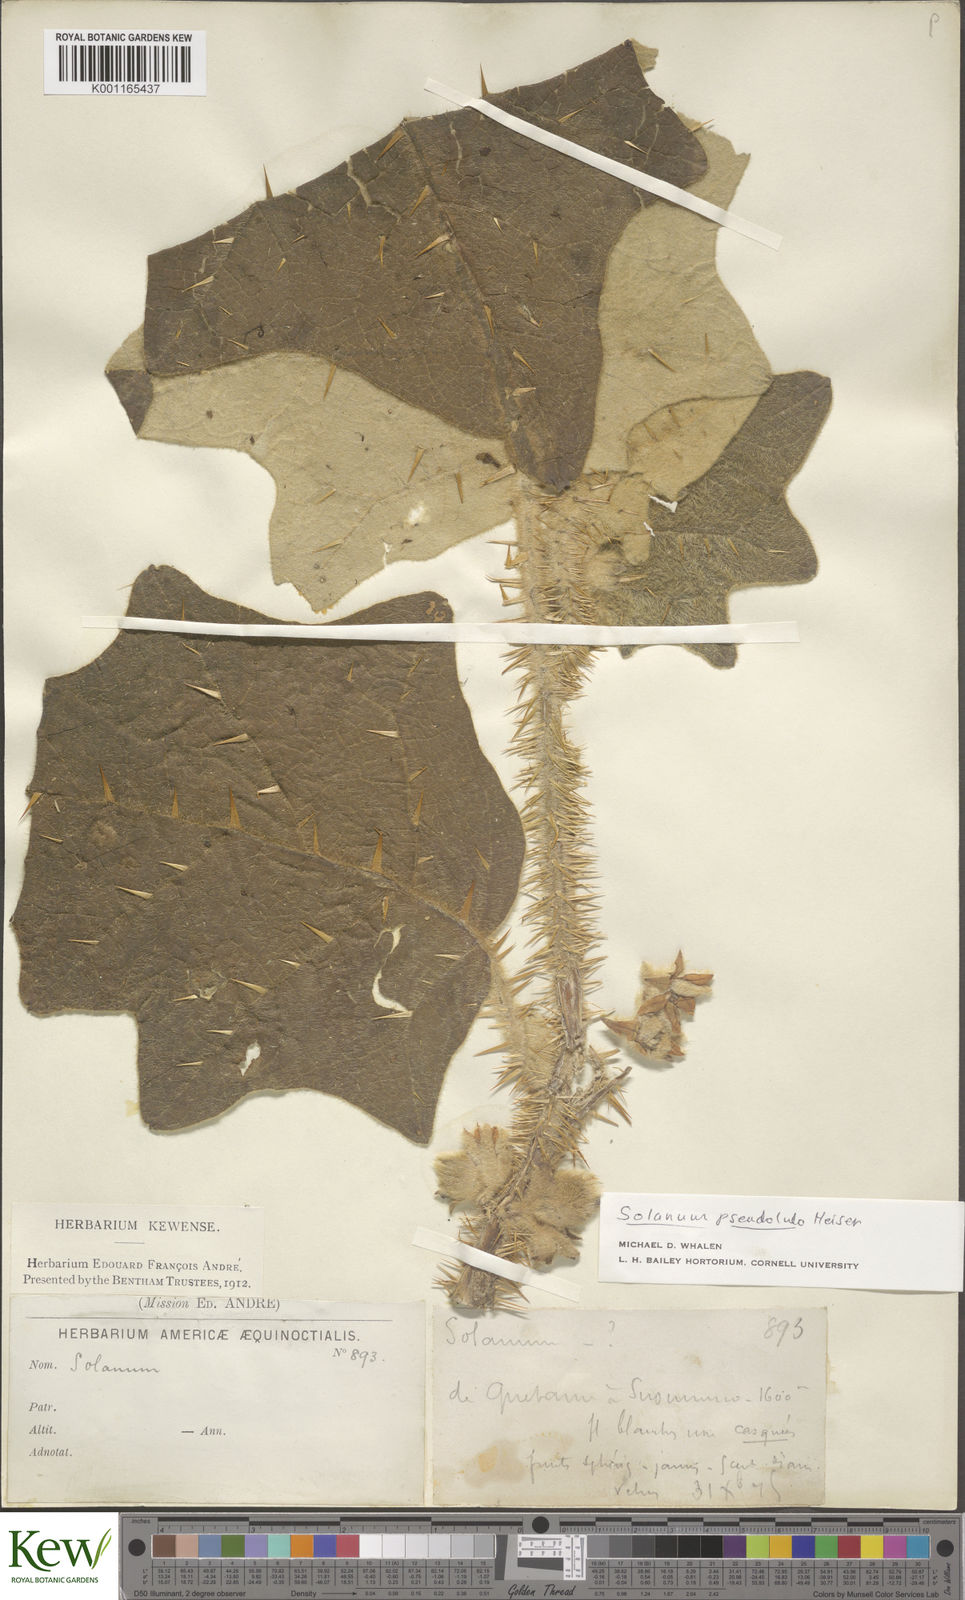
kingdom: Plantae
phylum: Tracheophyta
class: Magnoliopsida
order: Solanales
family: Solanaceae
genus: Solanum
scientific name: Solanum pseudolulo
